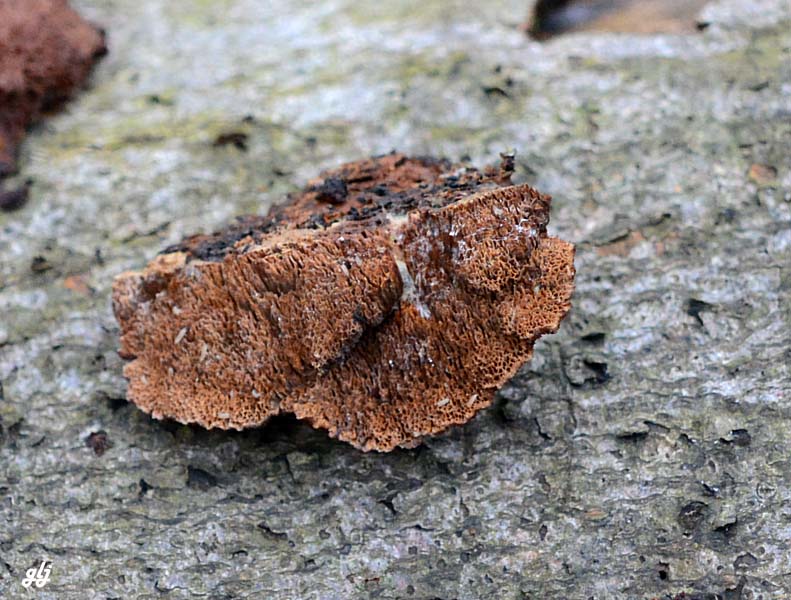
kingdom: Fungi
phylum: Basidiomycota
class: Agaricomycetes
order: Hymenochaetales
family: Hymenochaetaceae
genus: Mensularia
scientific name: Mensularia nodulosa
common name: bøge-spejlporesvamp
